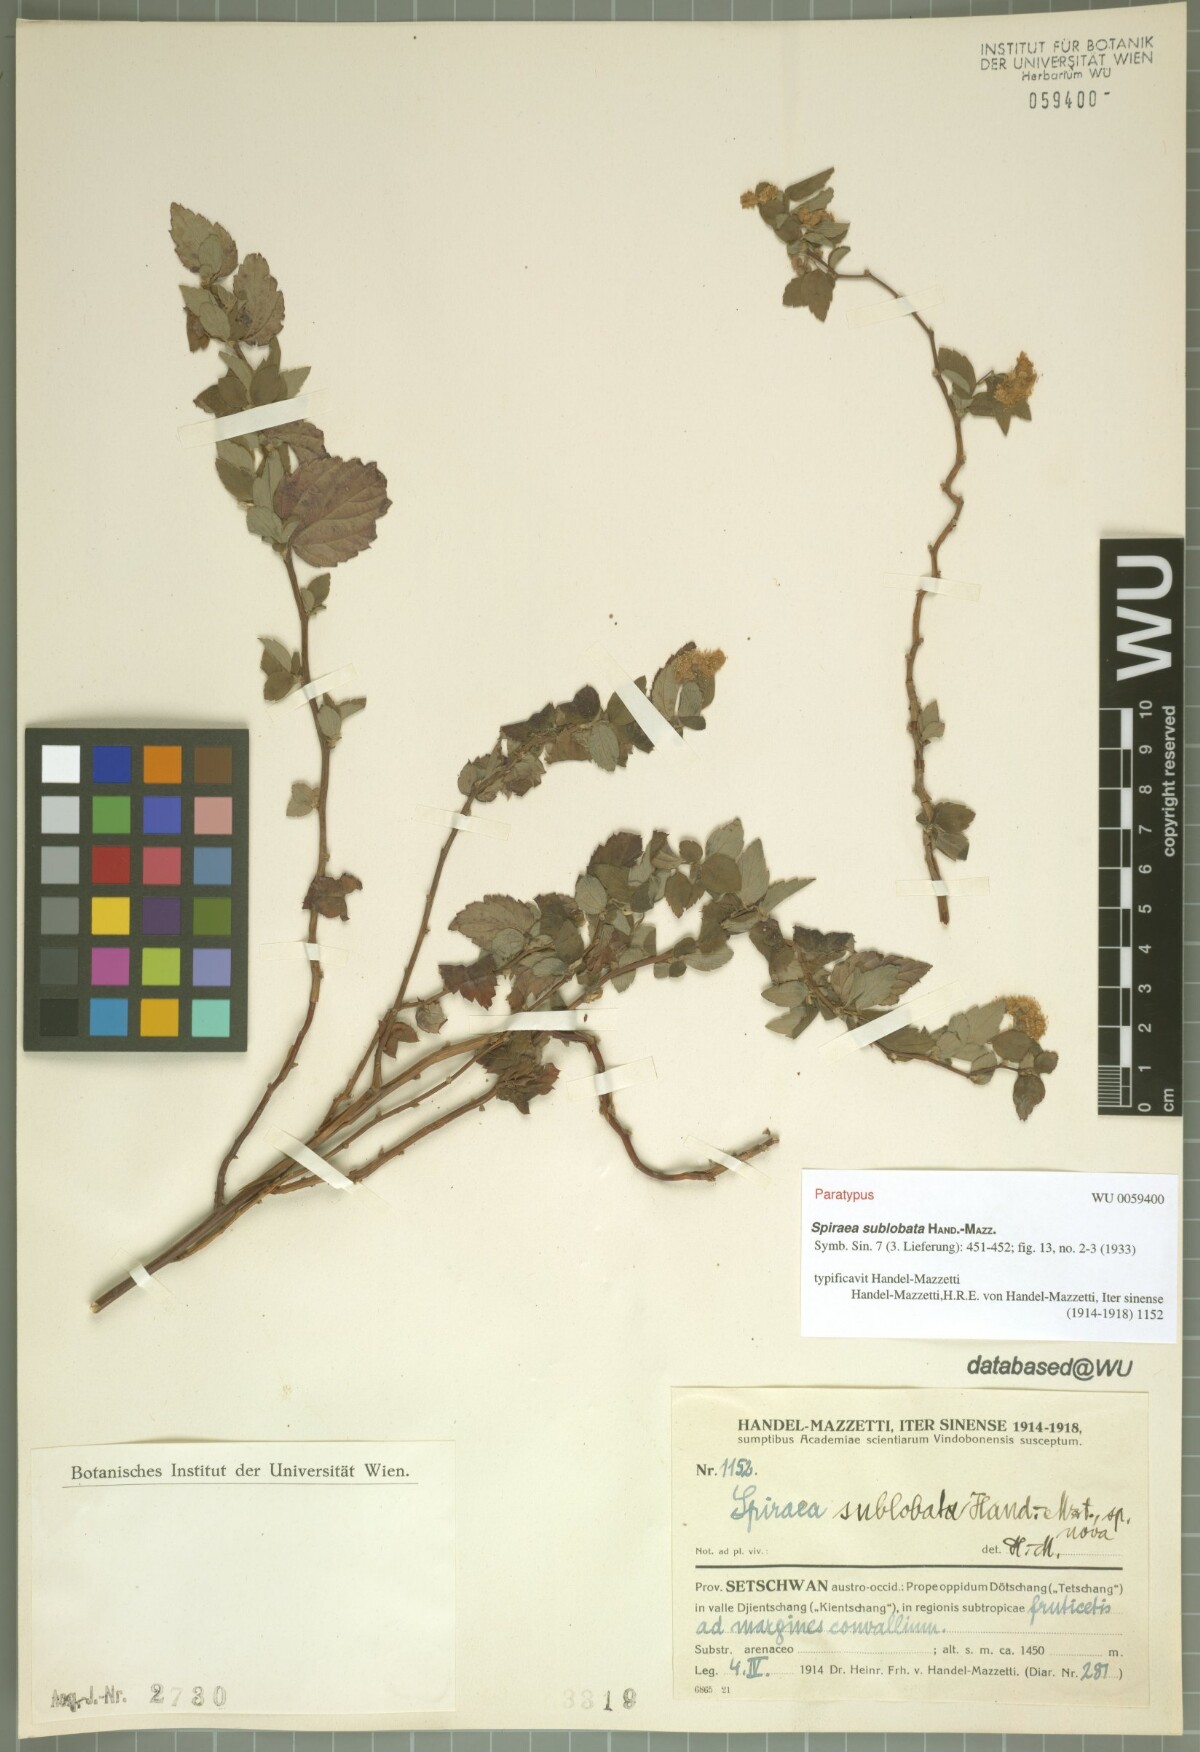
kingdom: Plantae
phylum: Tracheophyta
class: Magnoliopsida
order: Rosales
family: Rosaceae
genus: Spiraea
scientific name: Spiraea sublobata
